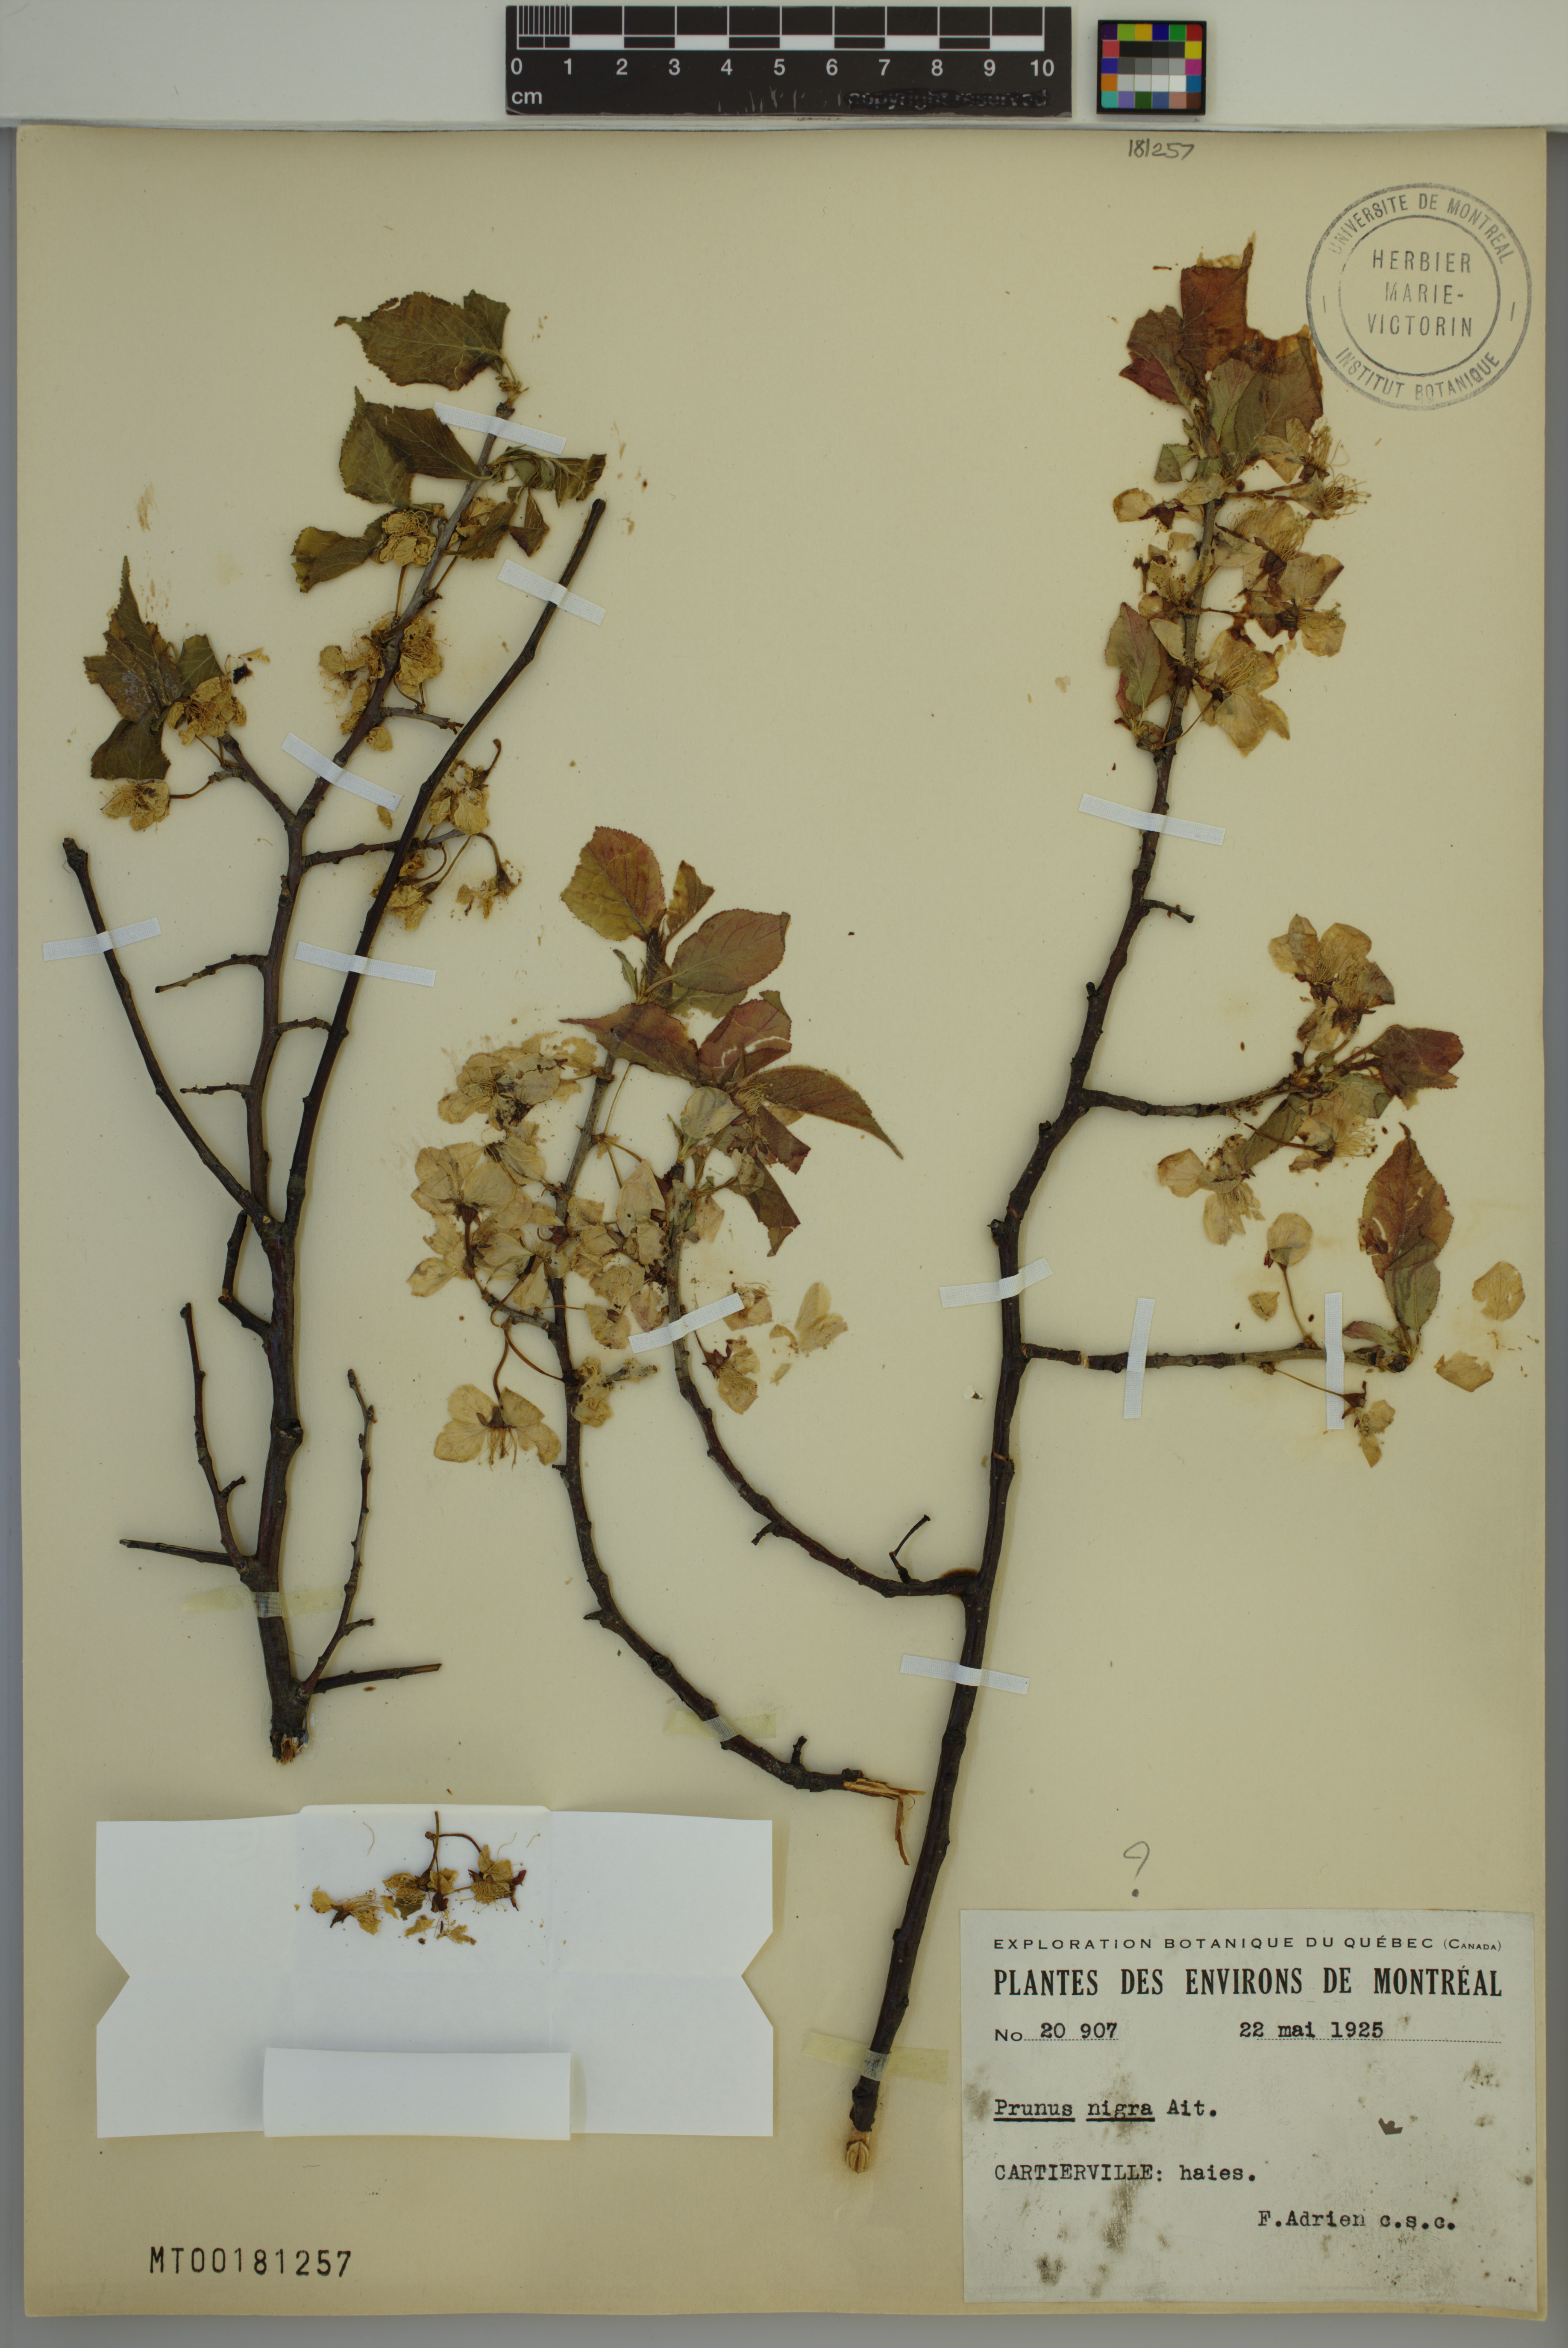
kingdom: Plantae
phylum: Tracheophyta
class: Magnoliopsida
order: Rosales
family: Rosaceae
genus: Prunus
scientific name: Prunus nigra
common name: Black plum
